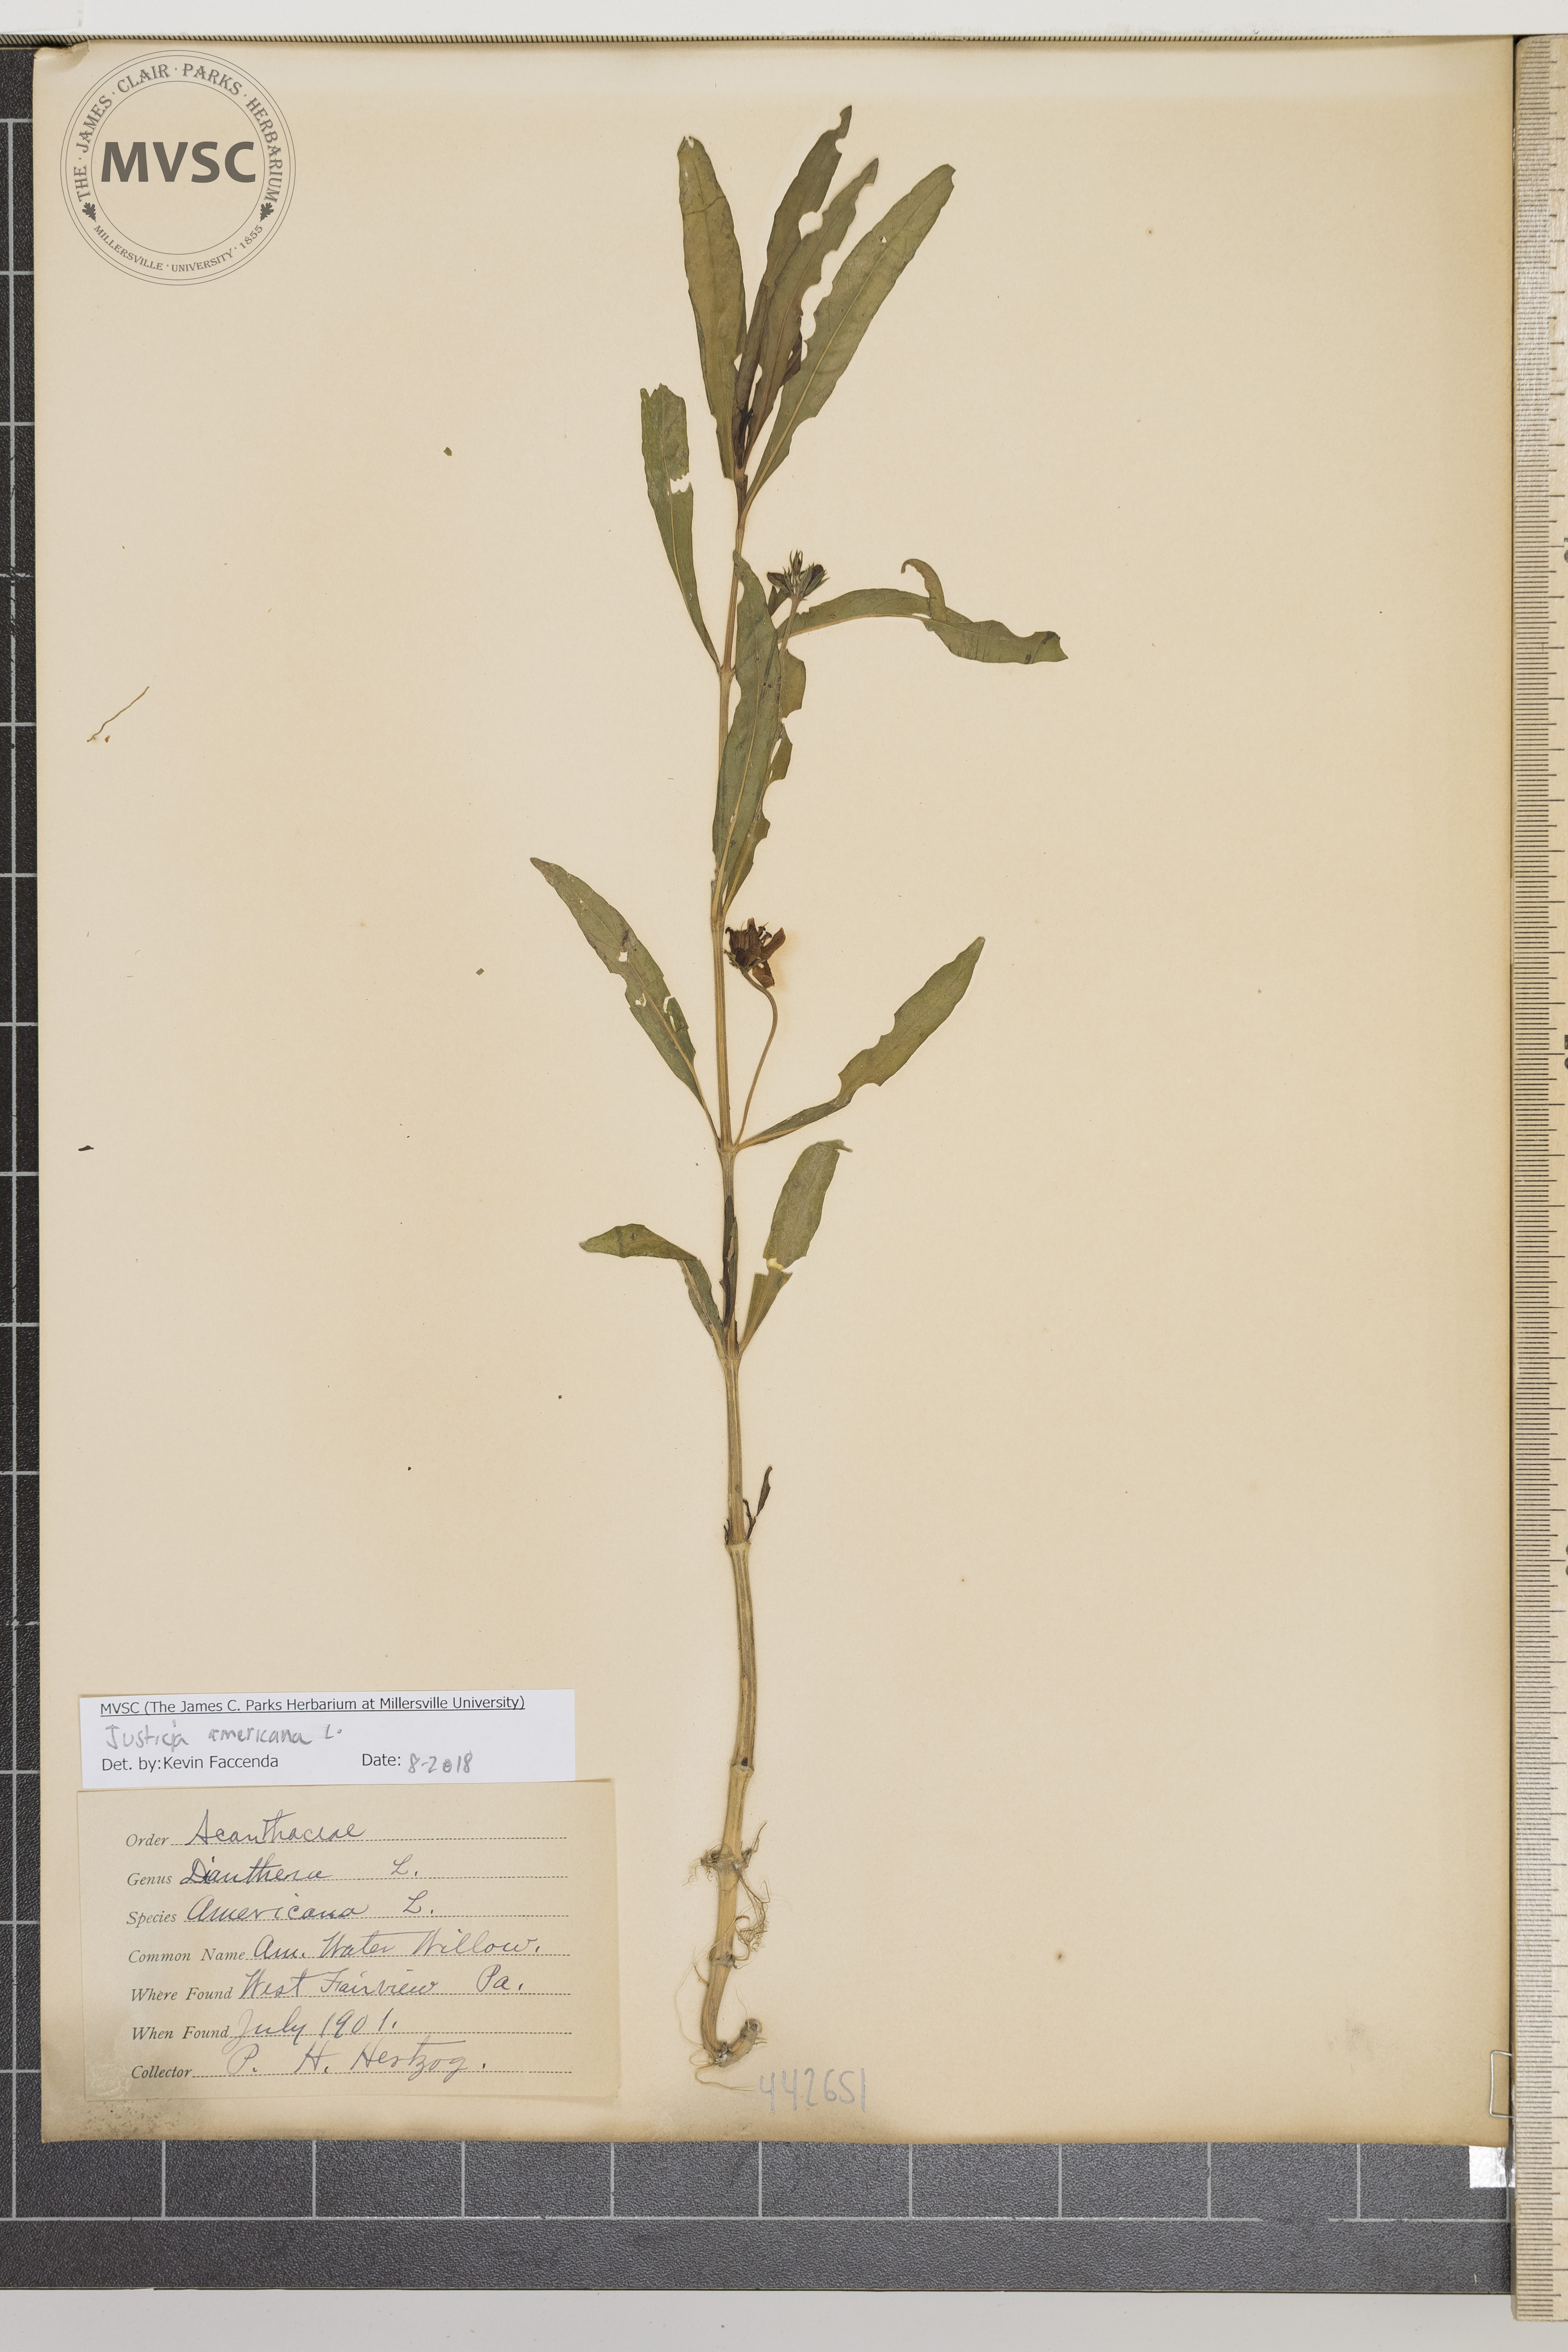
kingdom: Plantae
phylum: Tracheophyta
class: Magnoliopsida
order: Lamiales
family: Acanthaceae
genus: Dianthera
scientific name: Dianthera americana
